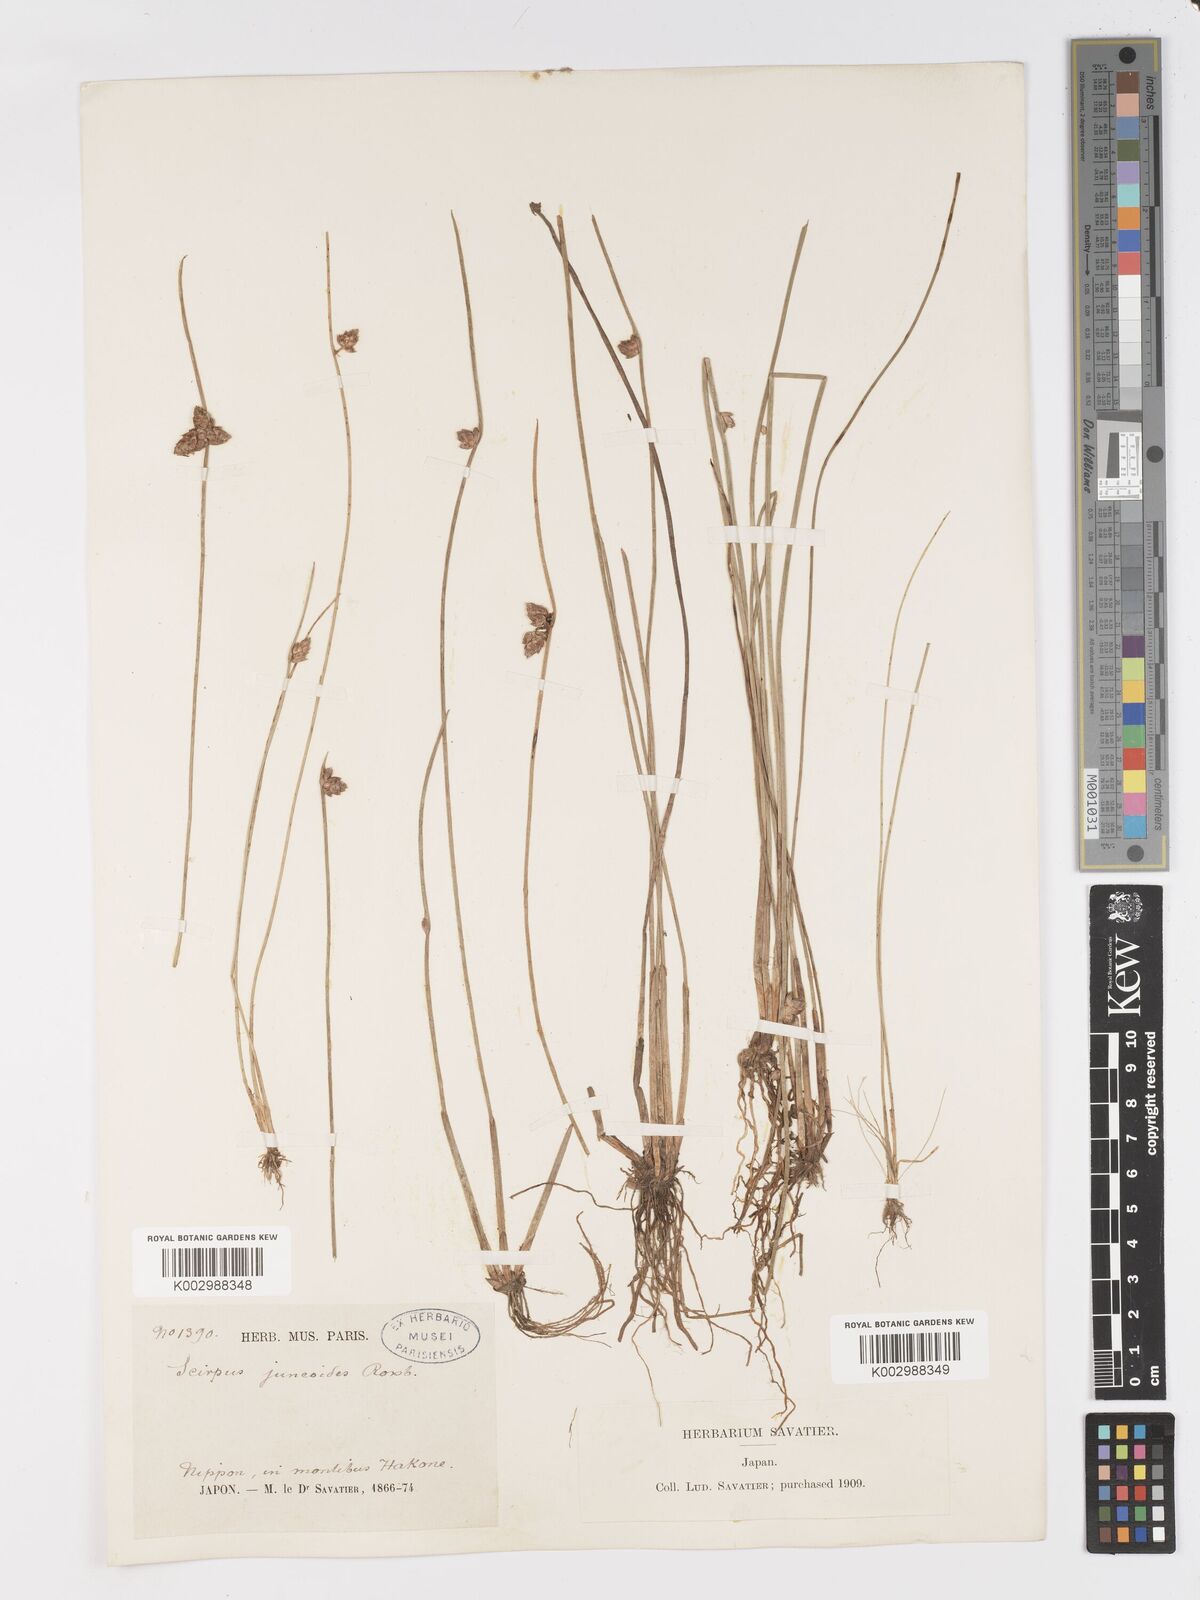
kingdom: Plantae
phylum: Tracheophyta
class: Liliopsida
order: Poales
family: Cyperaceae
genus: Schoenoplectiella
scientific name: Schoenoplectiella juncoides
